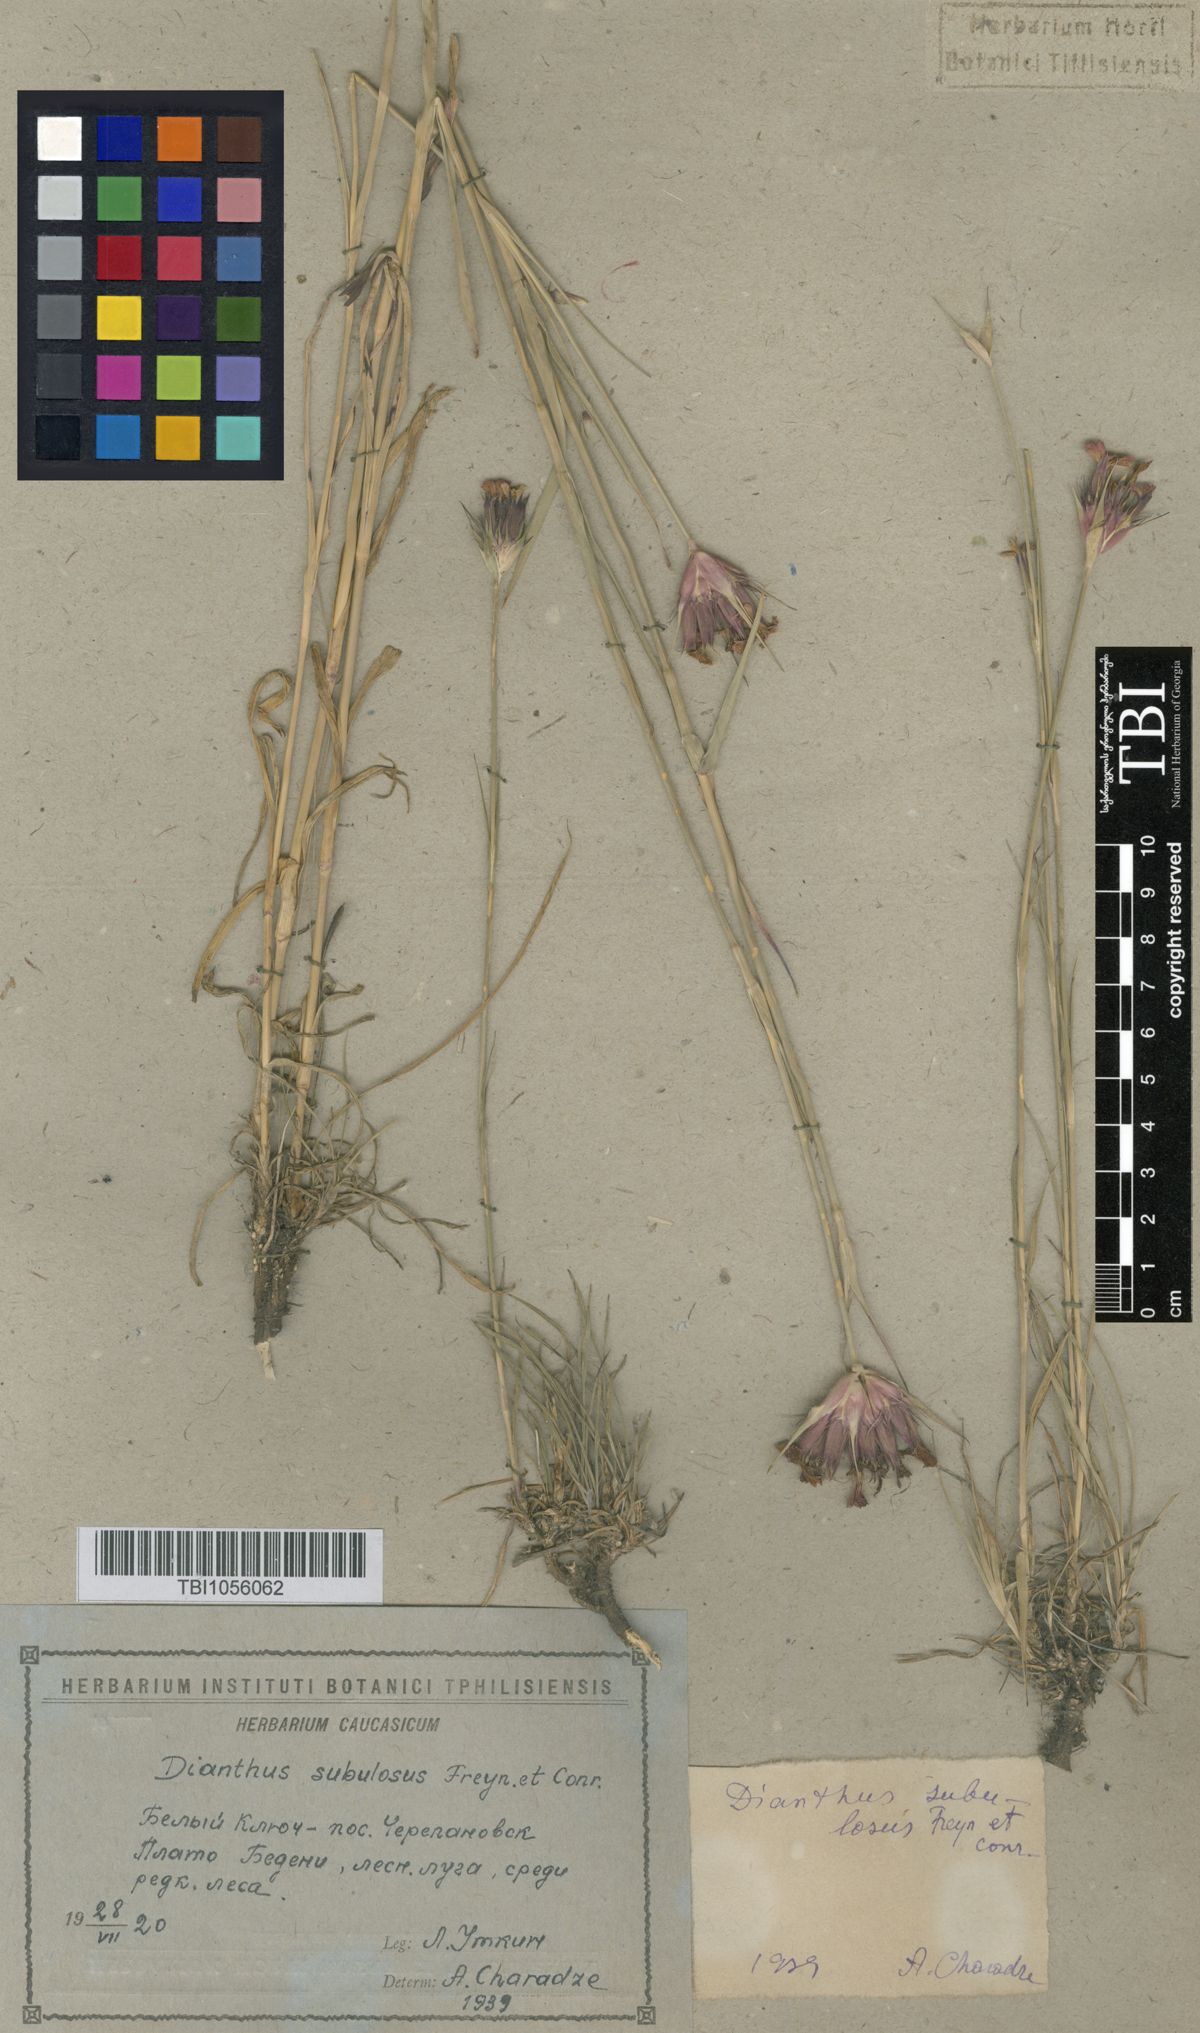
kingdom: Plantae
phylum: Tracheophyta
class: Magnoliopsida
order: Caryophyllales
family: Caryophyllaceae
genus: Dianthus
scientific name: Dianthus subulosus
